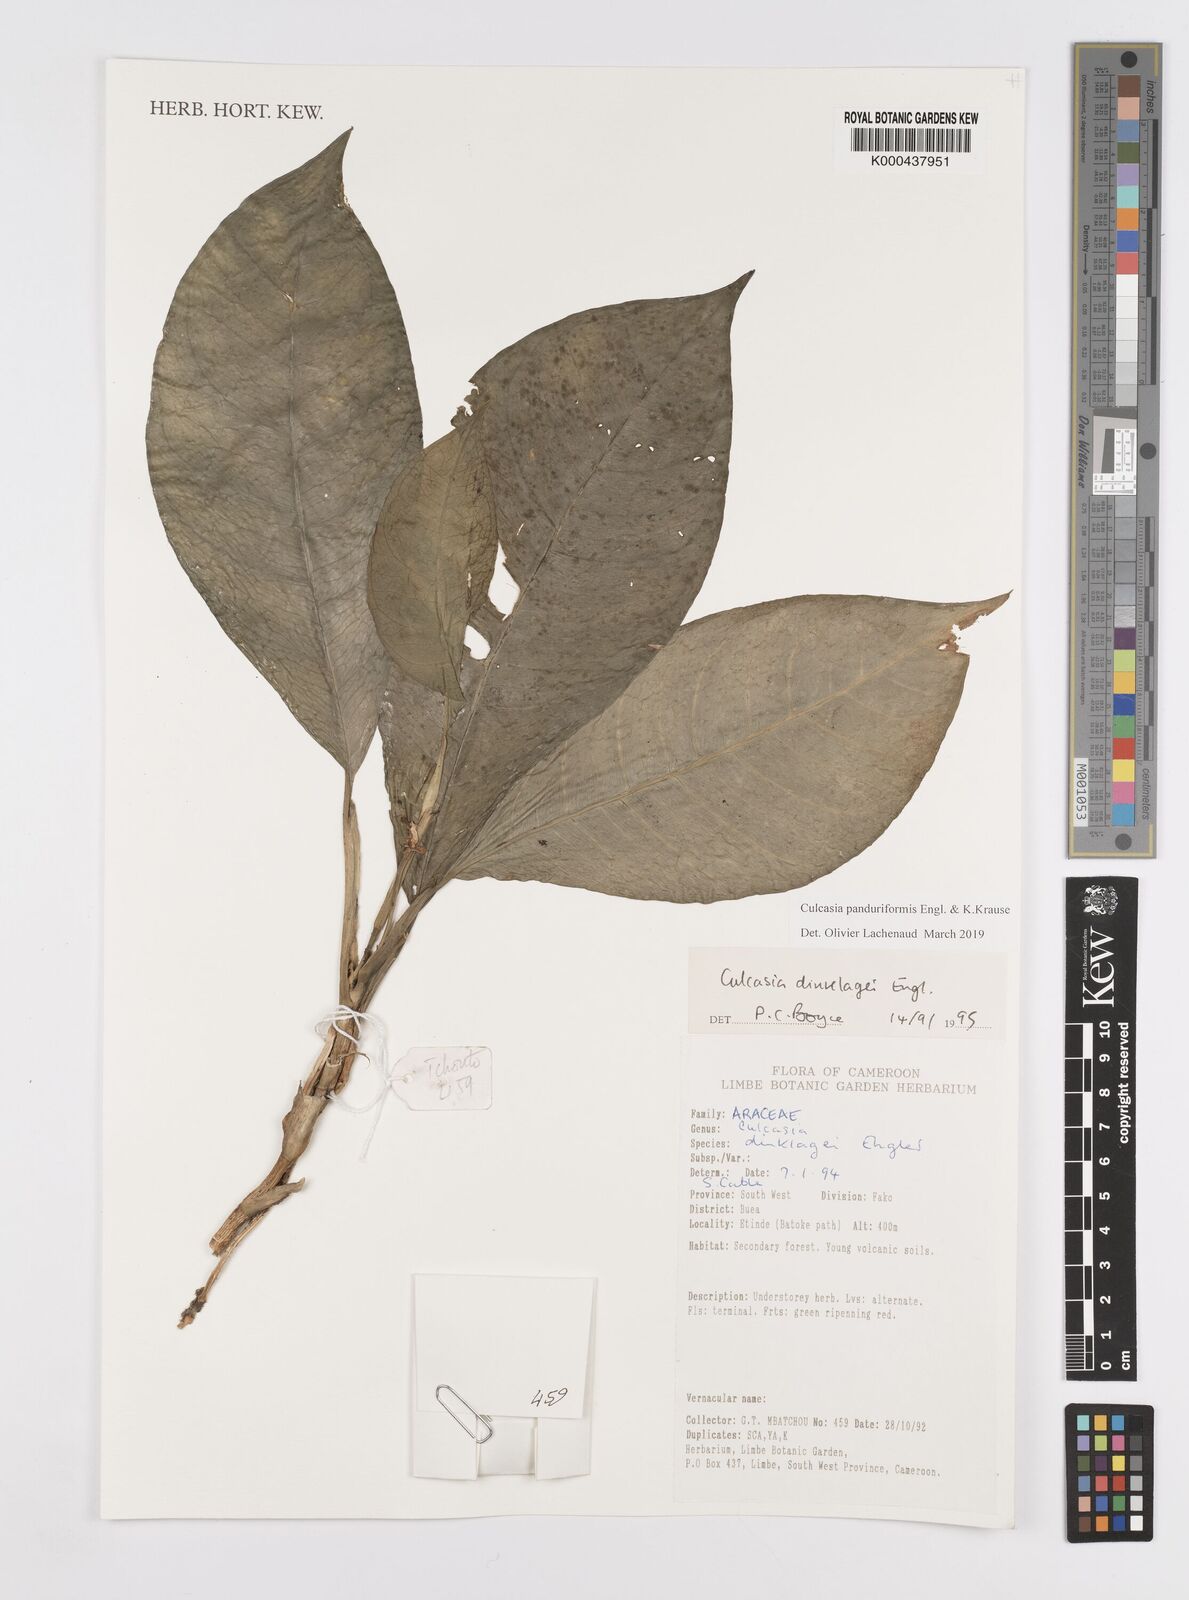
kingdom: Plantae
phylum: Tracheophyta
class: Liliopsida
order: Alismatales
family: Araceae
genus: Culcasia
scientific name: Culcasia panduriformis
